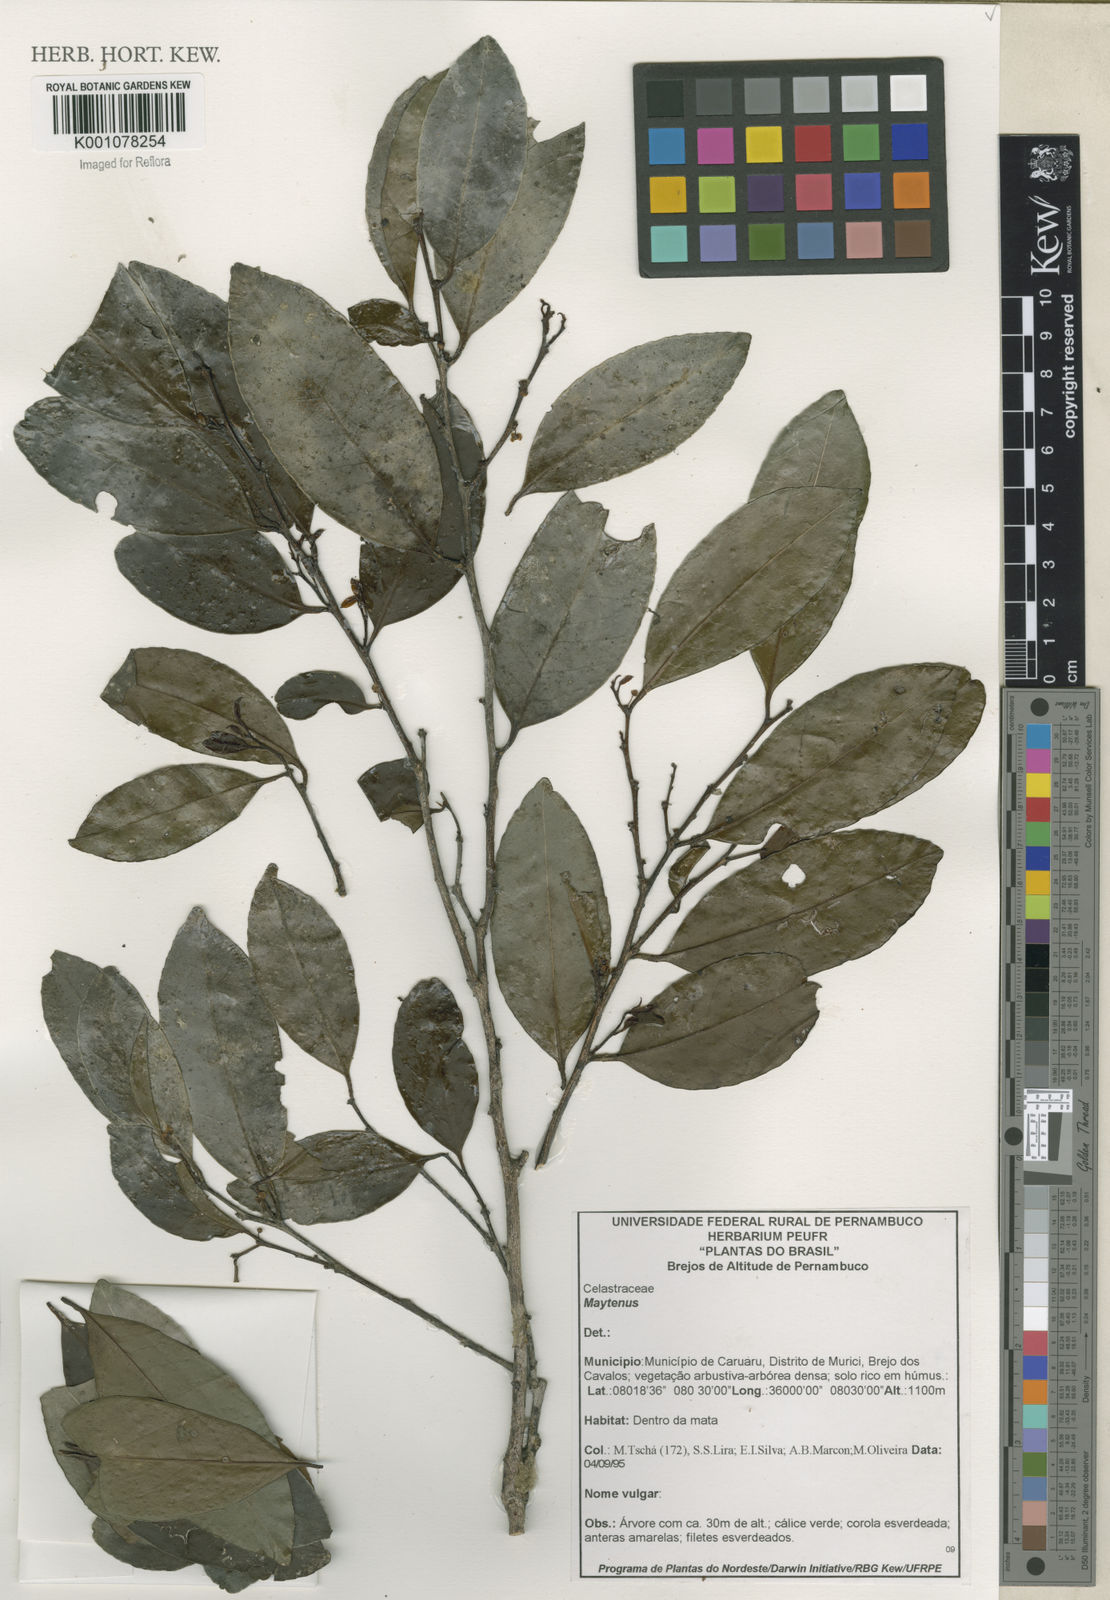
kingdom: Plantae
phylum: Tracheophyta
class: Magnoliopsida
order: Celastrales
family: Celastraceae
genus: Maytenus
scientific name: Maytenus
